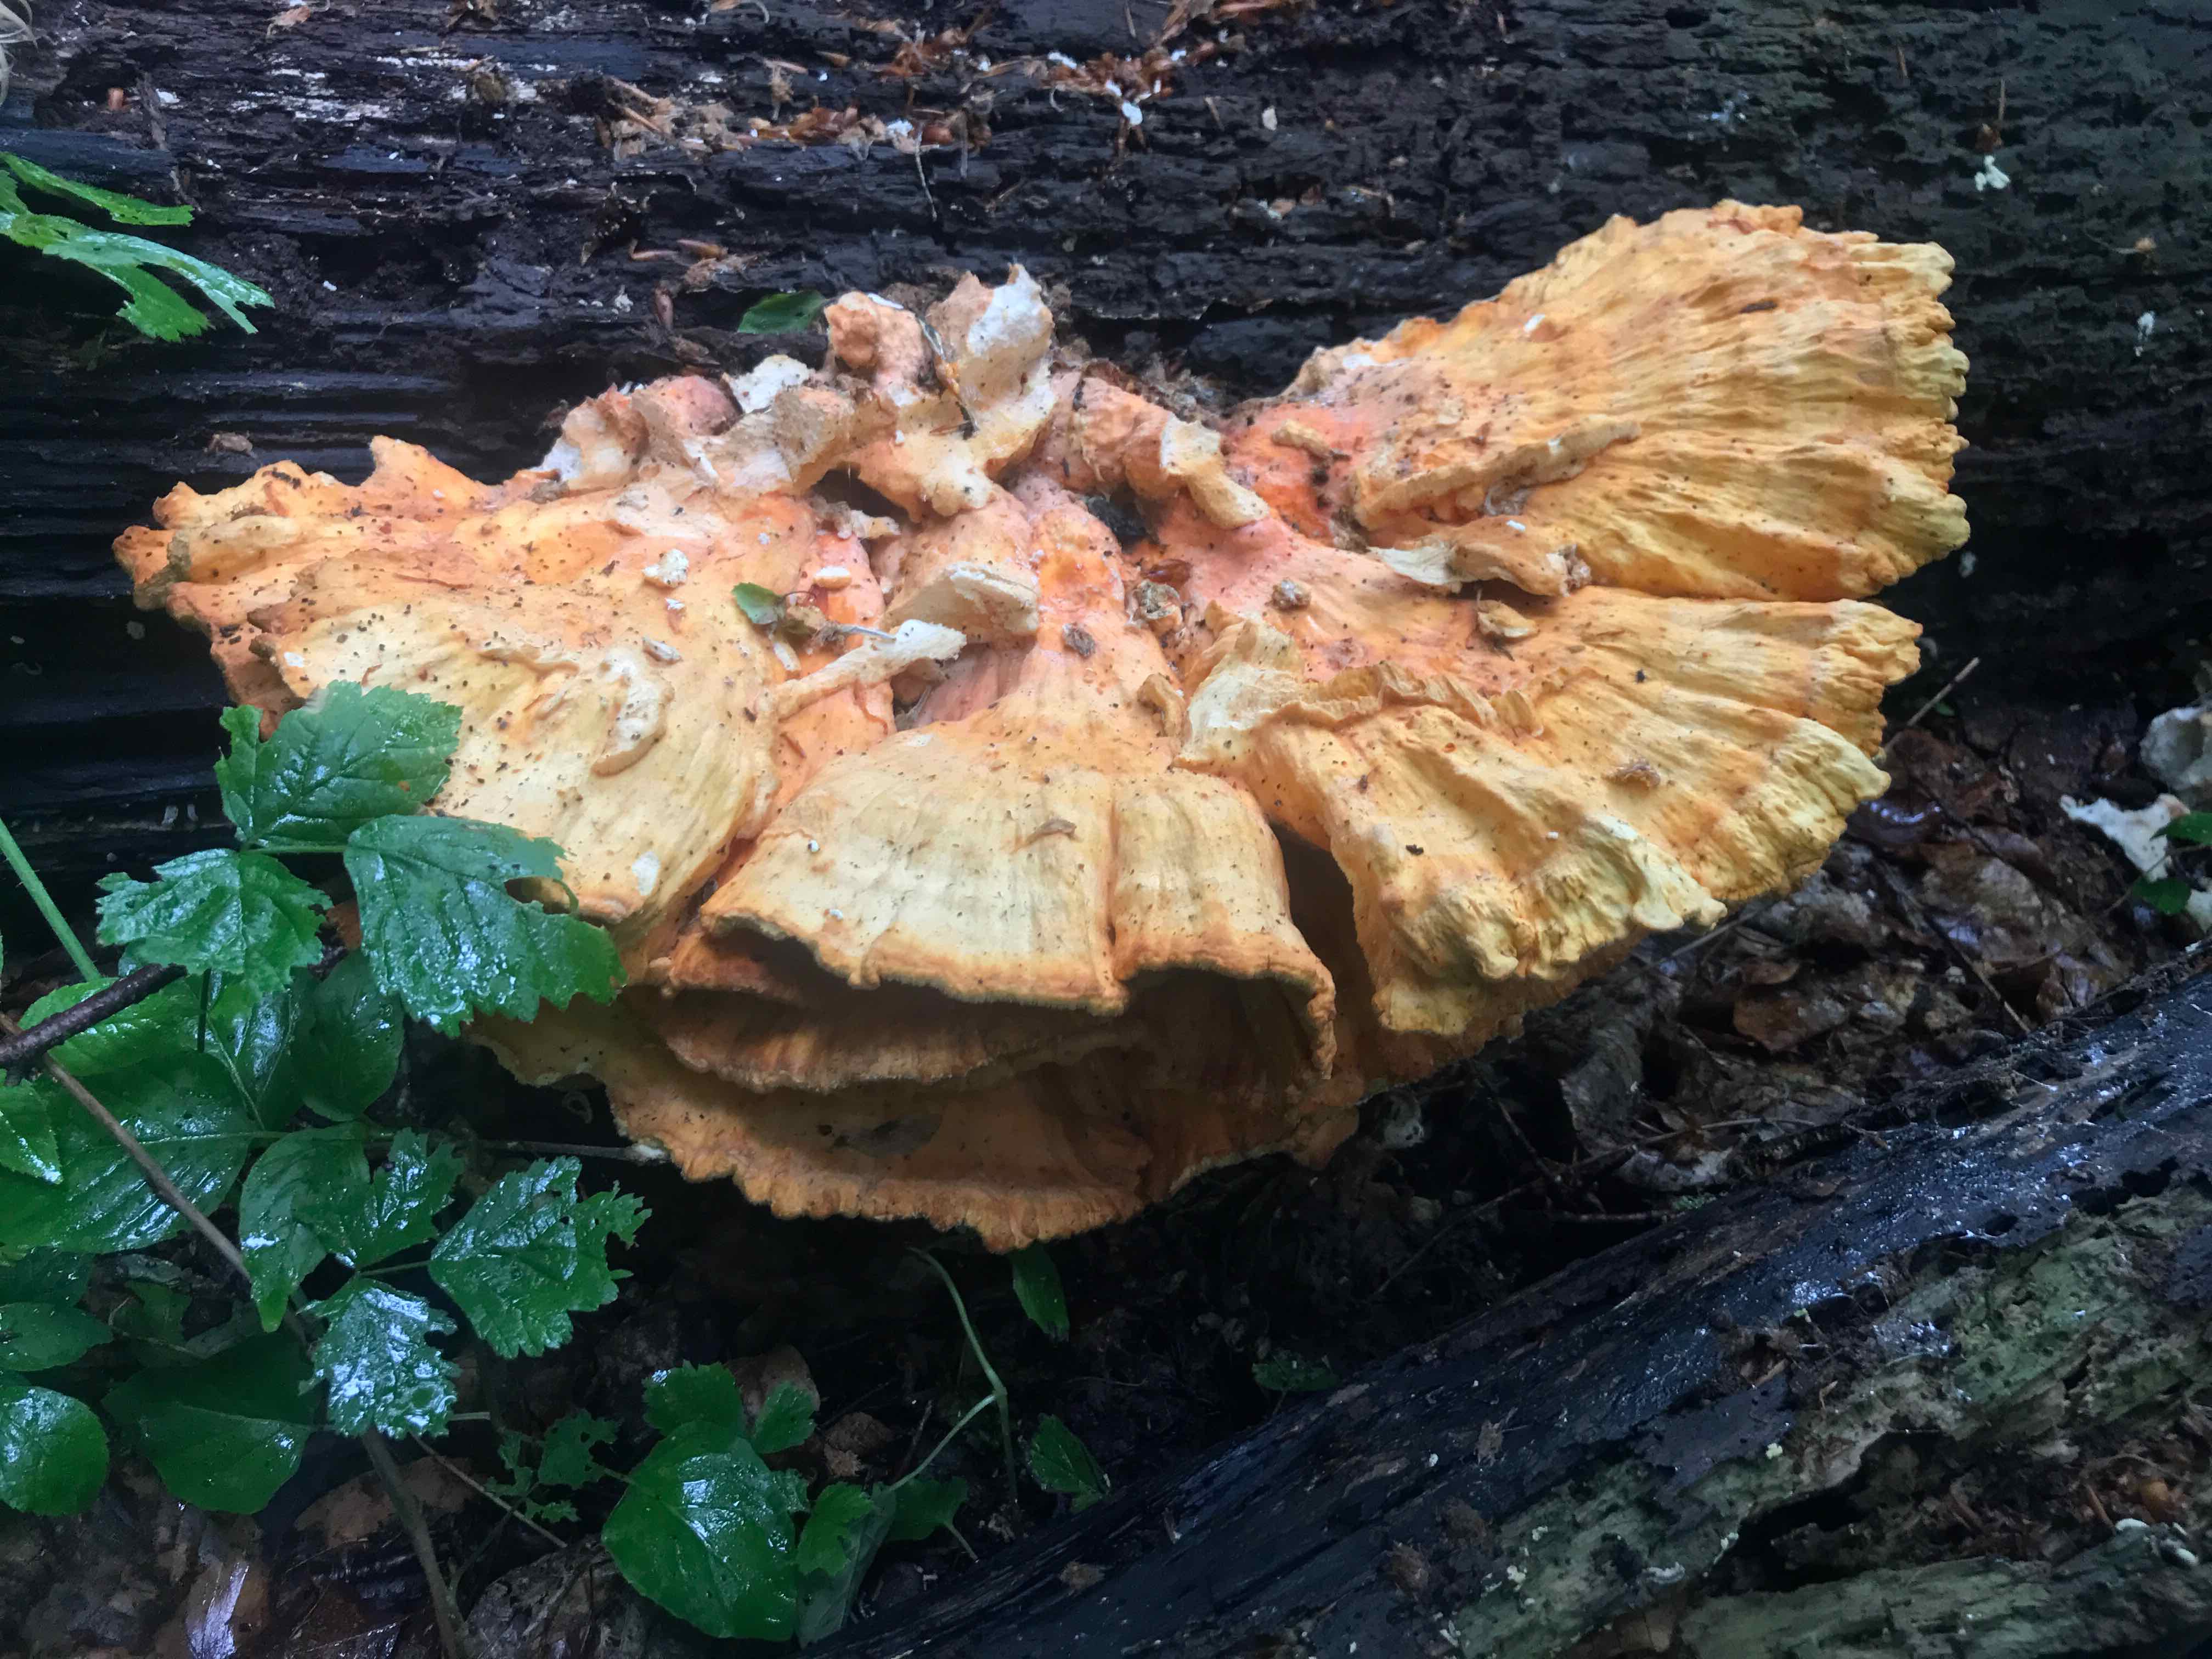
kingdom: Fungi
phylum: Basidiomycota
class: Agaricomycetes
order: Polyporales
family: Laetiporaceae
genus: Laetiporus
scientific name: Laetiporus sulphureus
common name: svovlporesvamp
